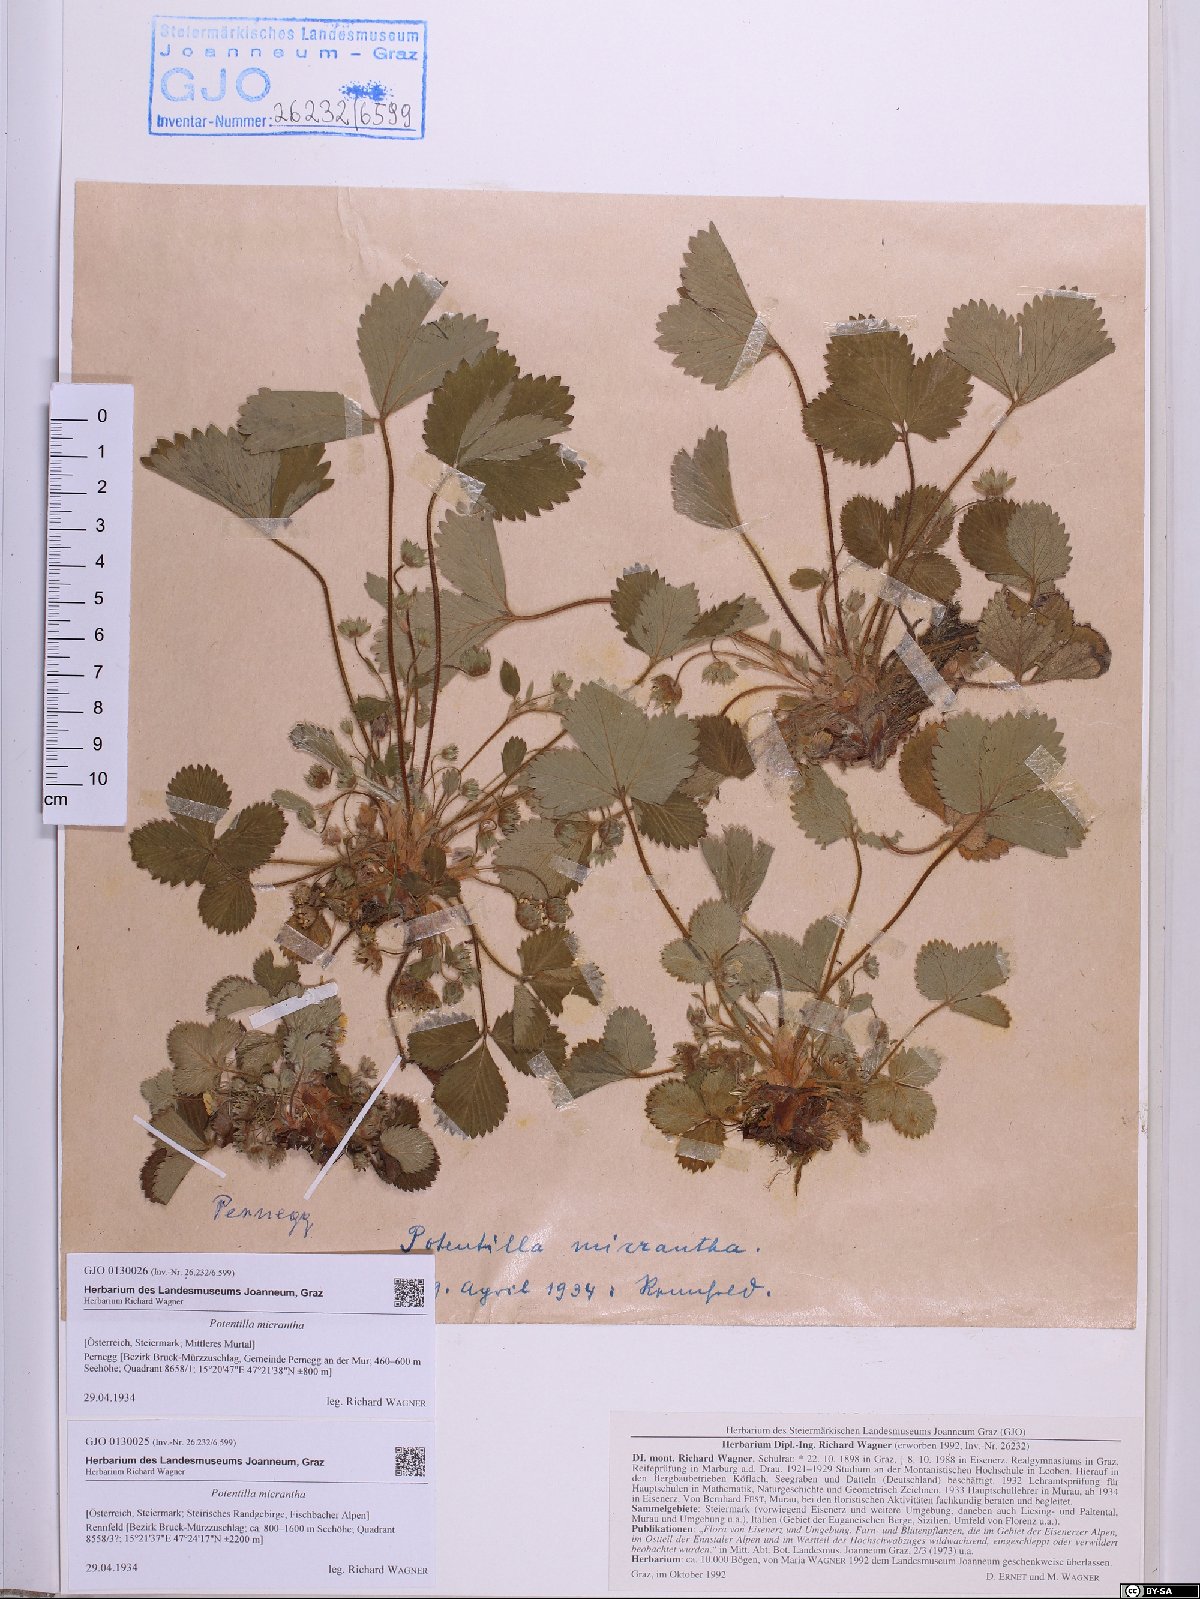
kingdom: Plantae
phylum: Tracheophyta
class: Magnoliopsida
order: Rosales
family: Rosaceae
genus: Potentilla
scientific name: Potentilla micrantha
